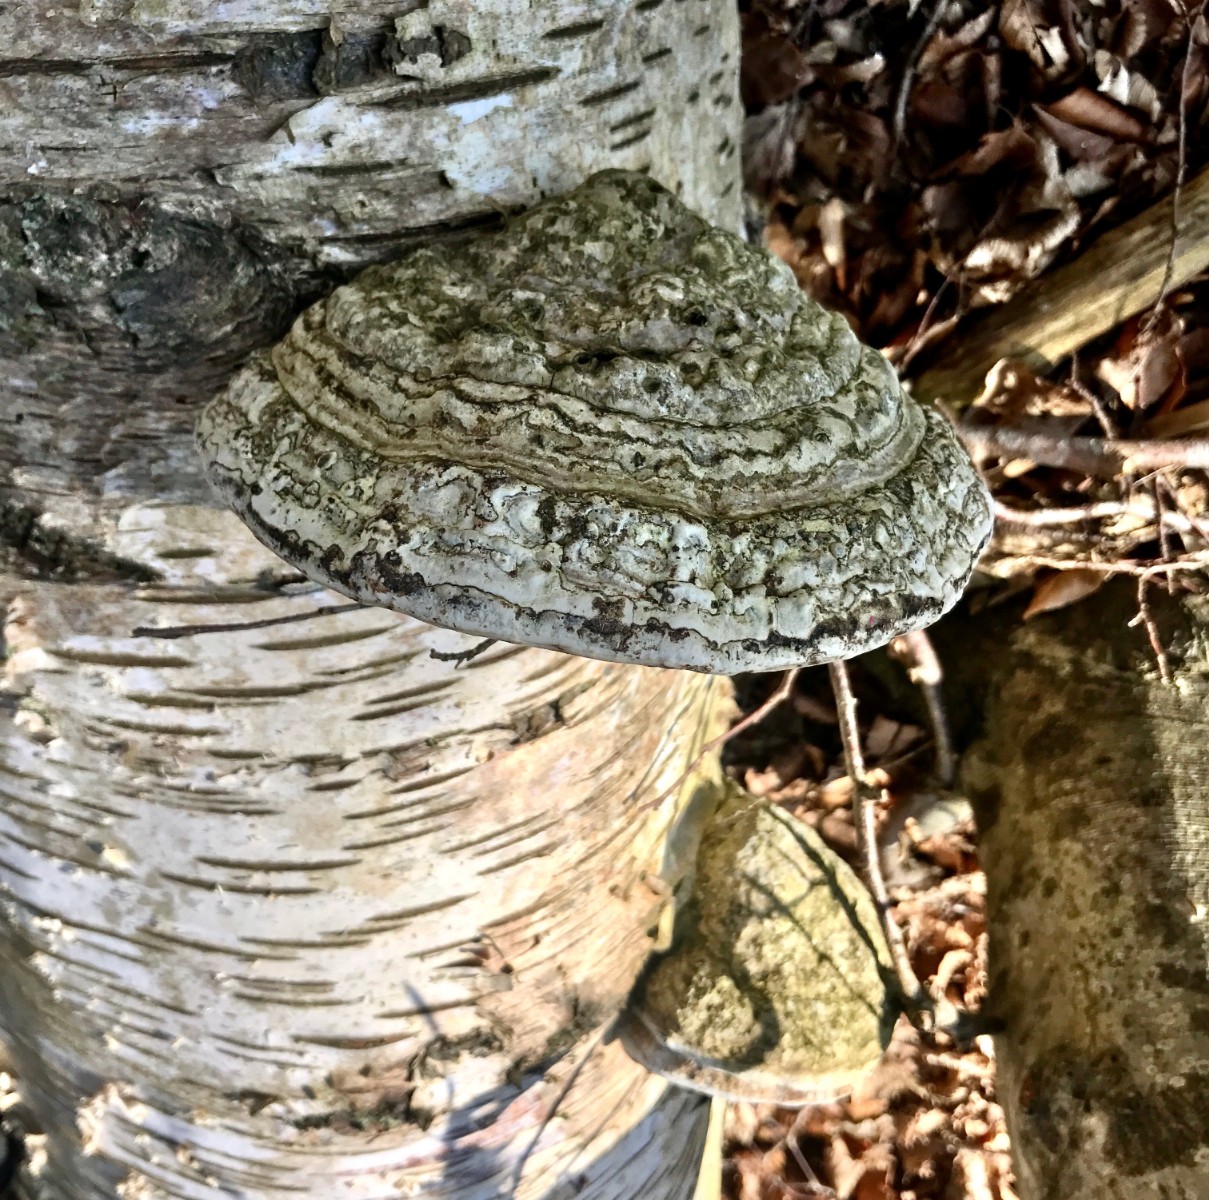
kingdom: Fungi
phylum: Basidiomycota
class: Agaricomycetes
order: Polyporales
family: Polyporaceae
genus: Fomes
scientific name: Fomes fomentarius
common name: tøndersvamp
